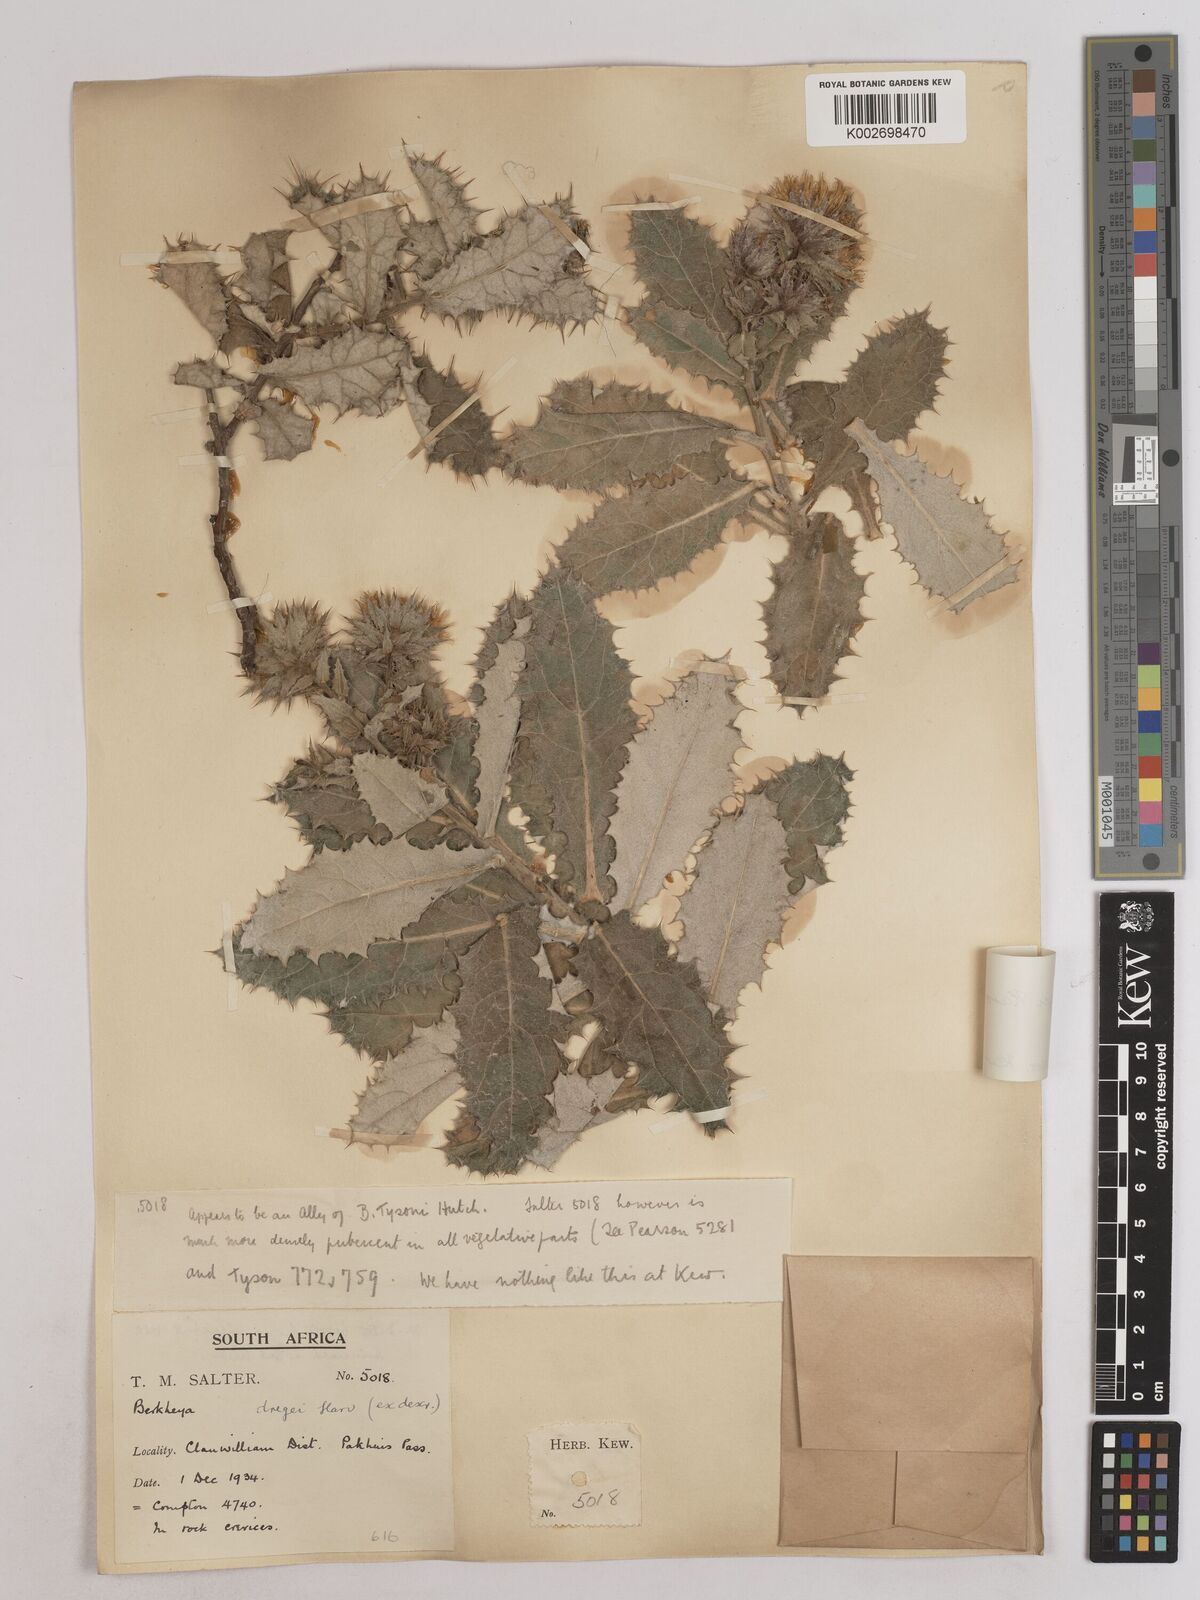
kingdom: Plantae
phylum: Tracheophyta
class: Magnoliopsida
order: Asterales
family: Asteraceae
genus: Berkheya
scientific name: Berkheya dregei
